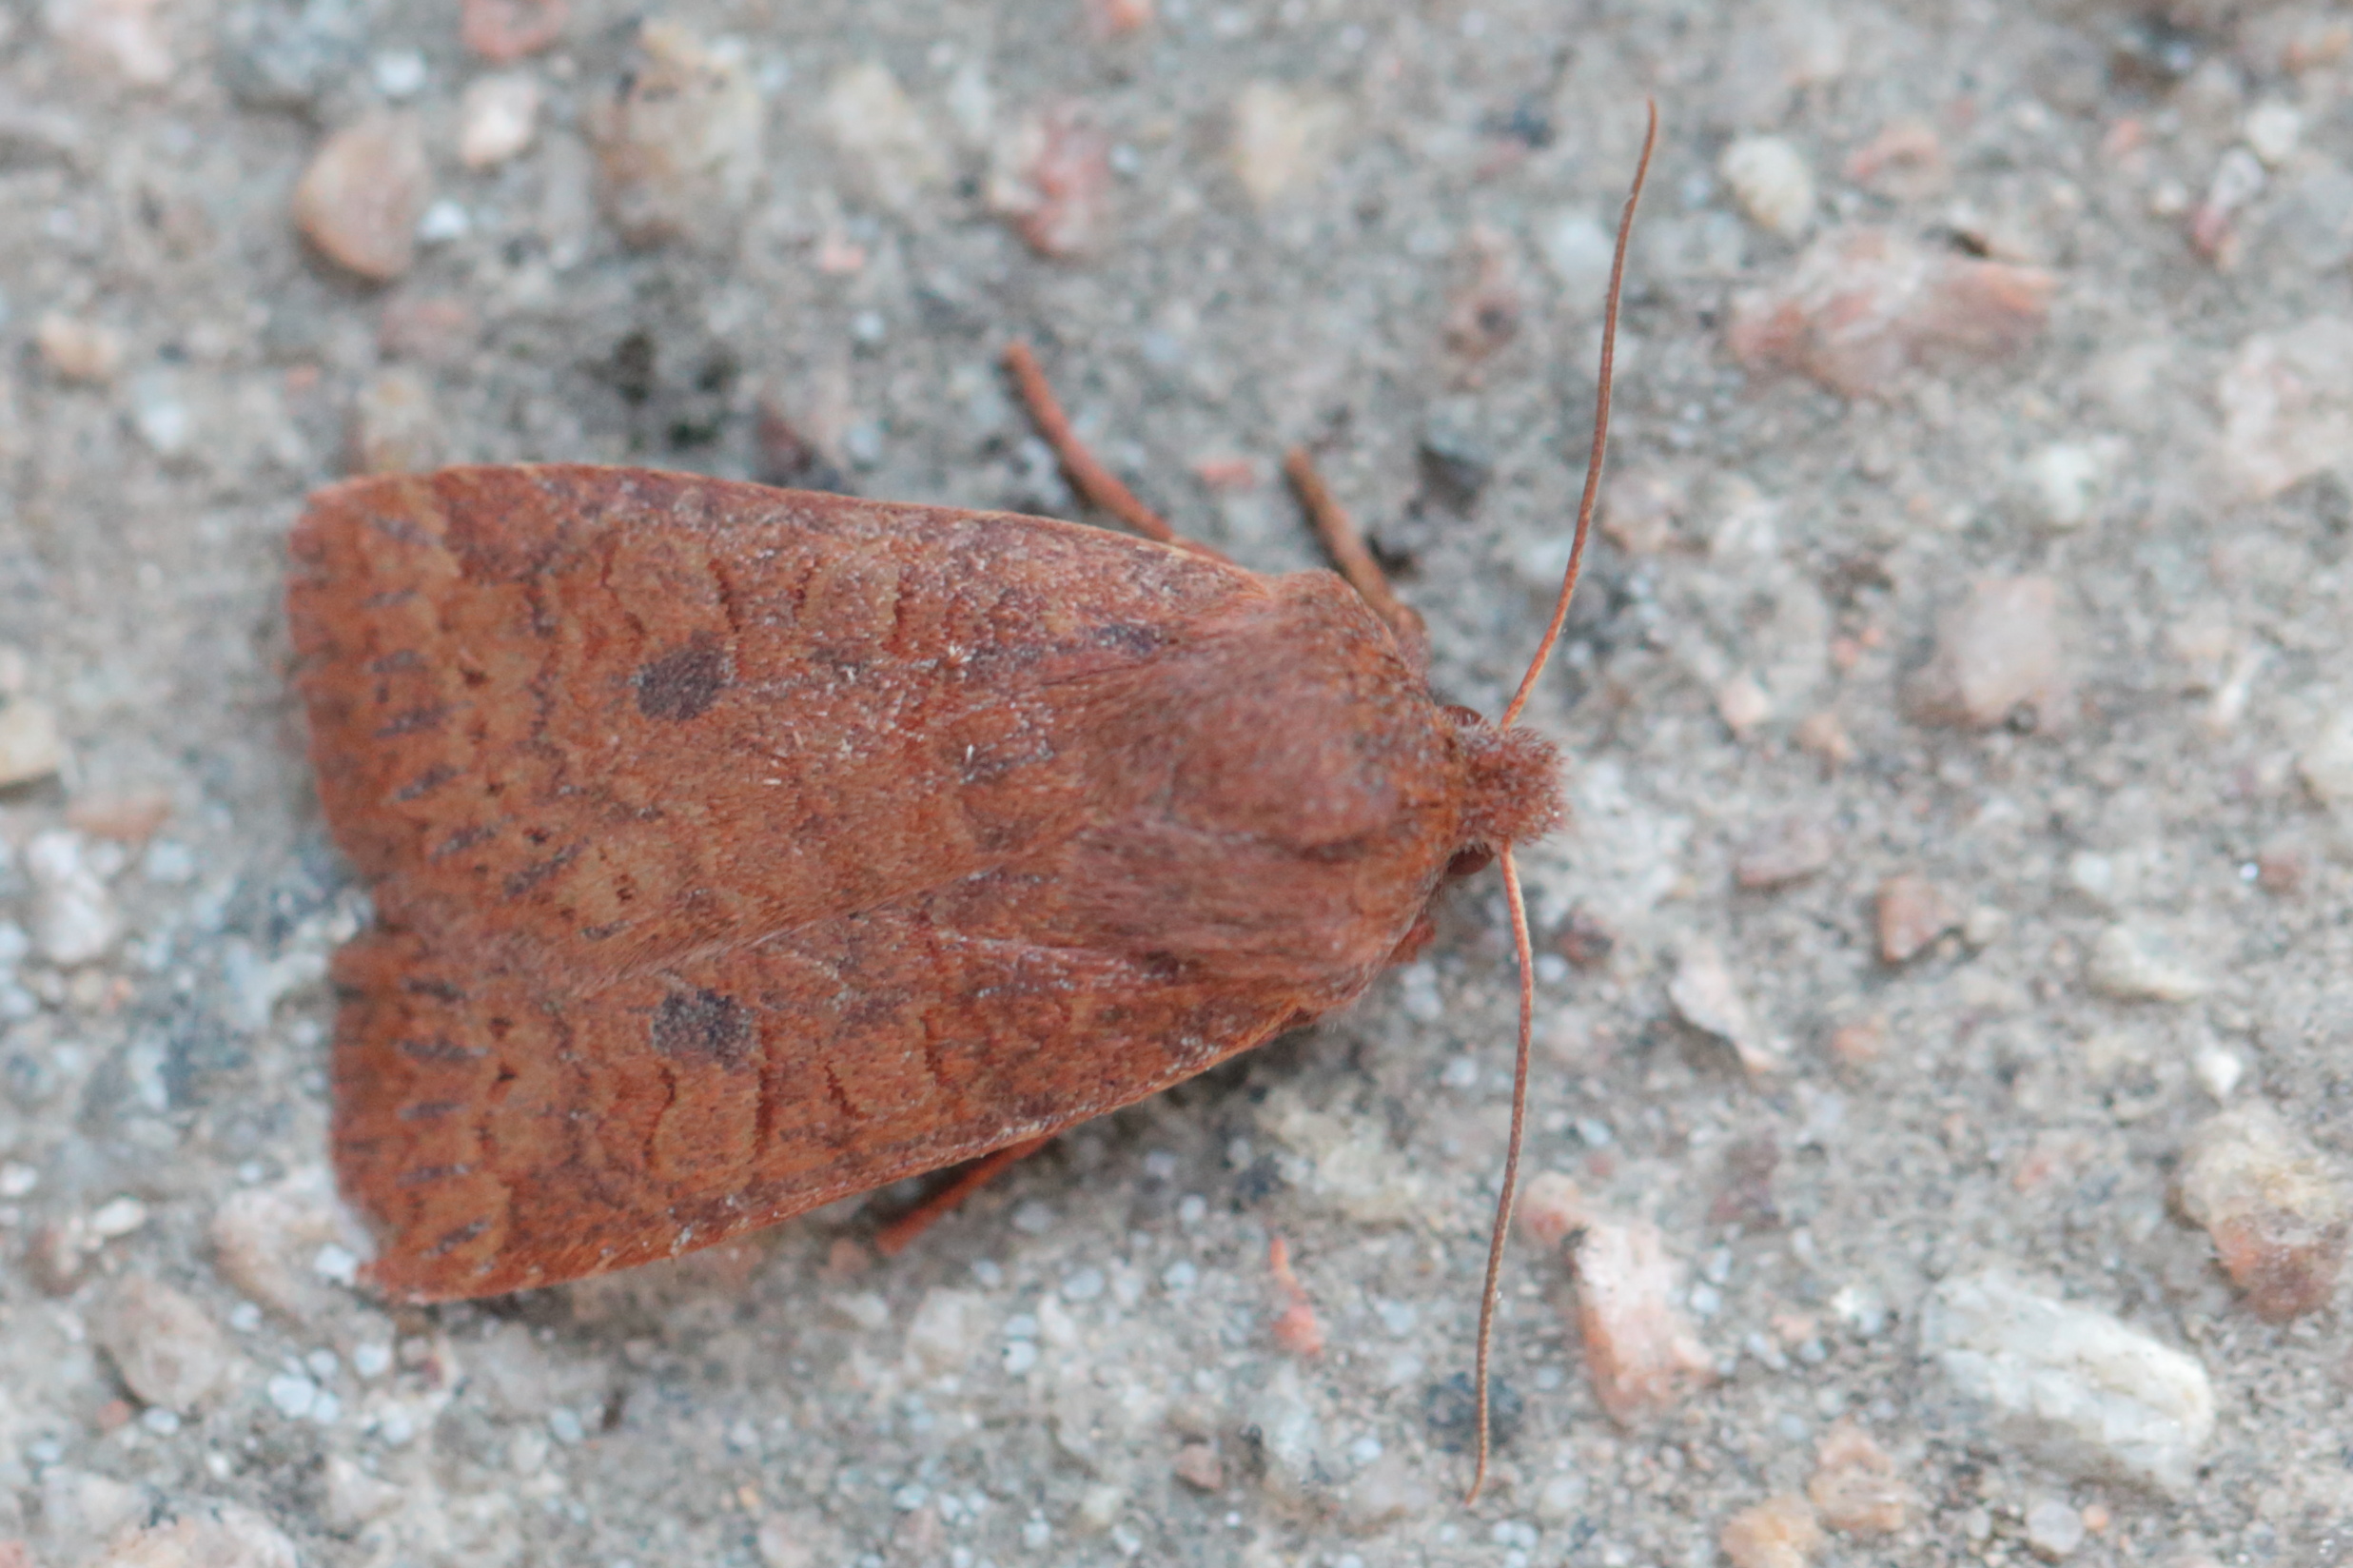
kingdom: Animalia
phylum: Arthropoda
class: Insecta
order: Lepidoptera
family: Noctuidae
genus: Conistra
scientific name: Conistra vaccinii
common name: Chestnut
